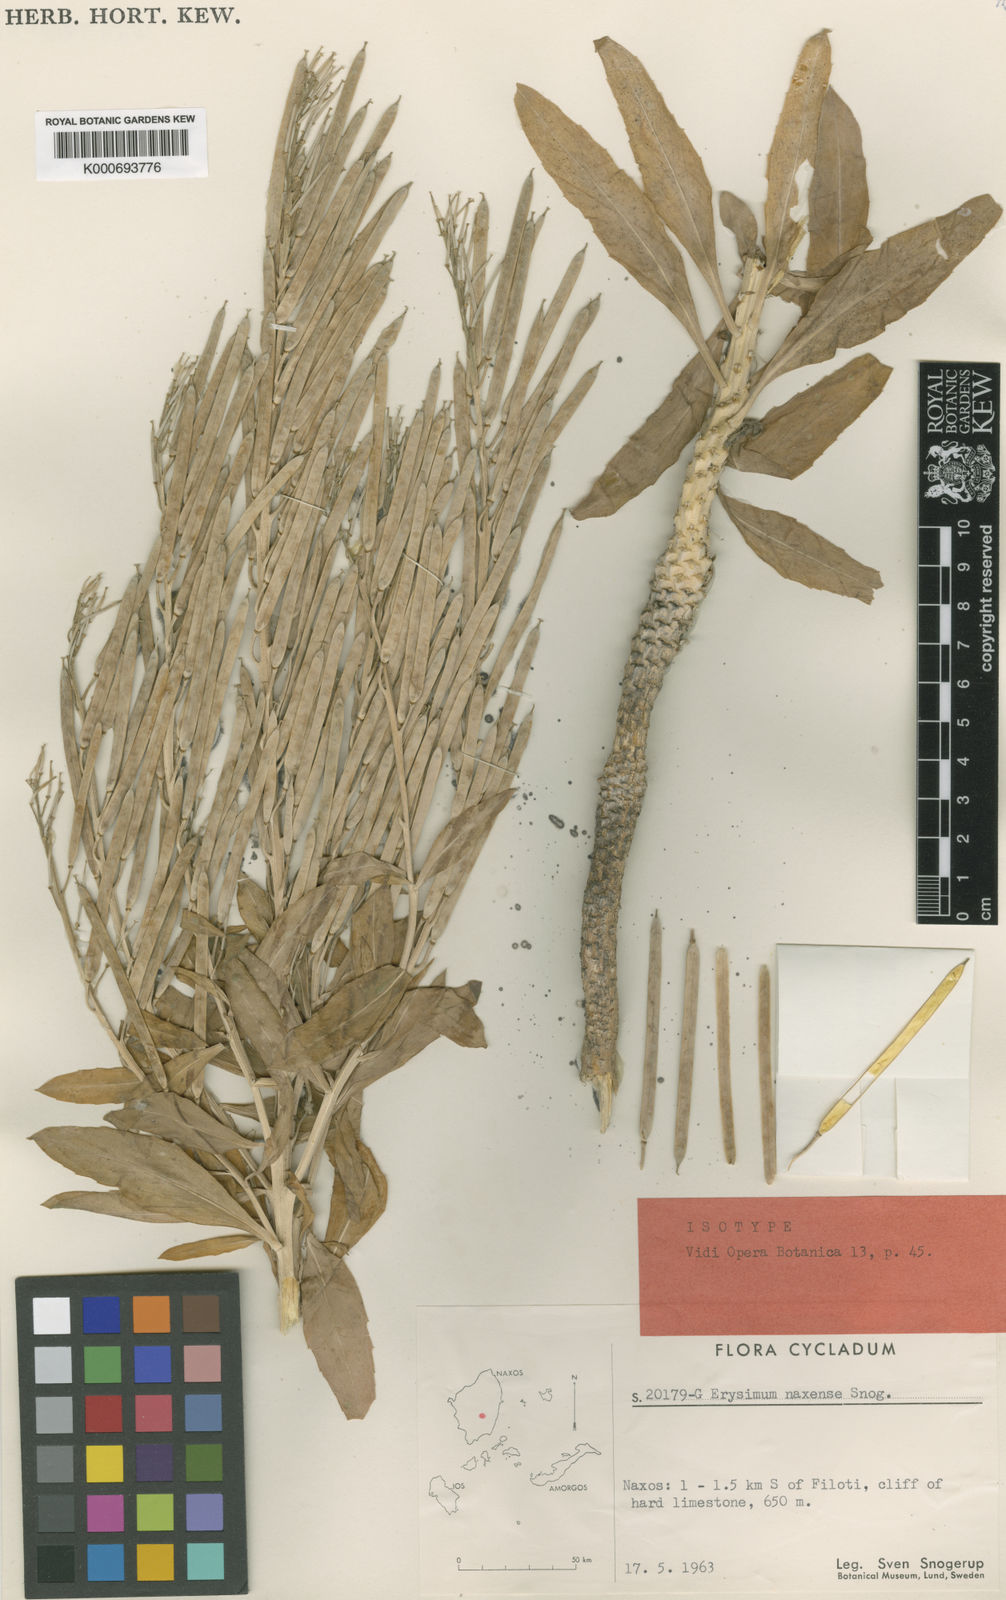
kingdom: Plantae
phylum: Tracheophyta
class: Magnoliopsida
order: Brassicales
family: Brassicaceae
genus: Erysimum
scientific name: Erysimum naxense
